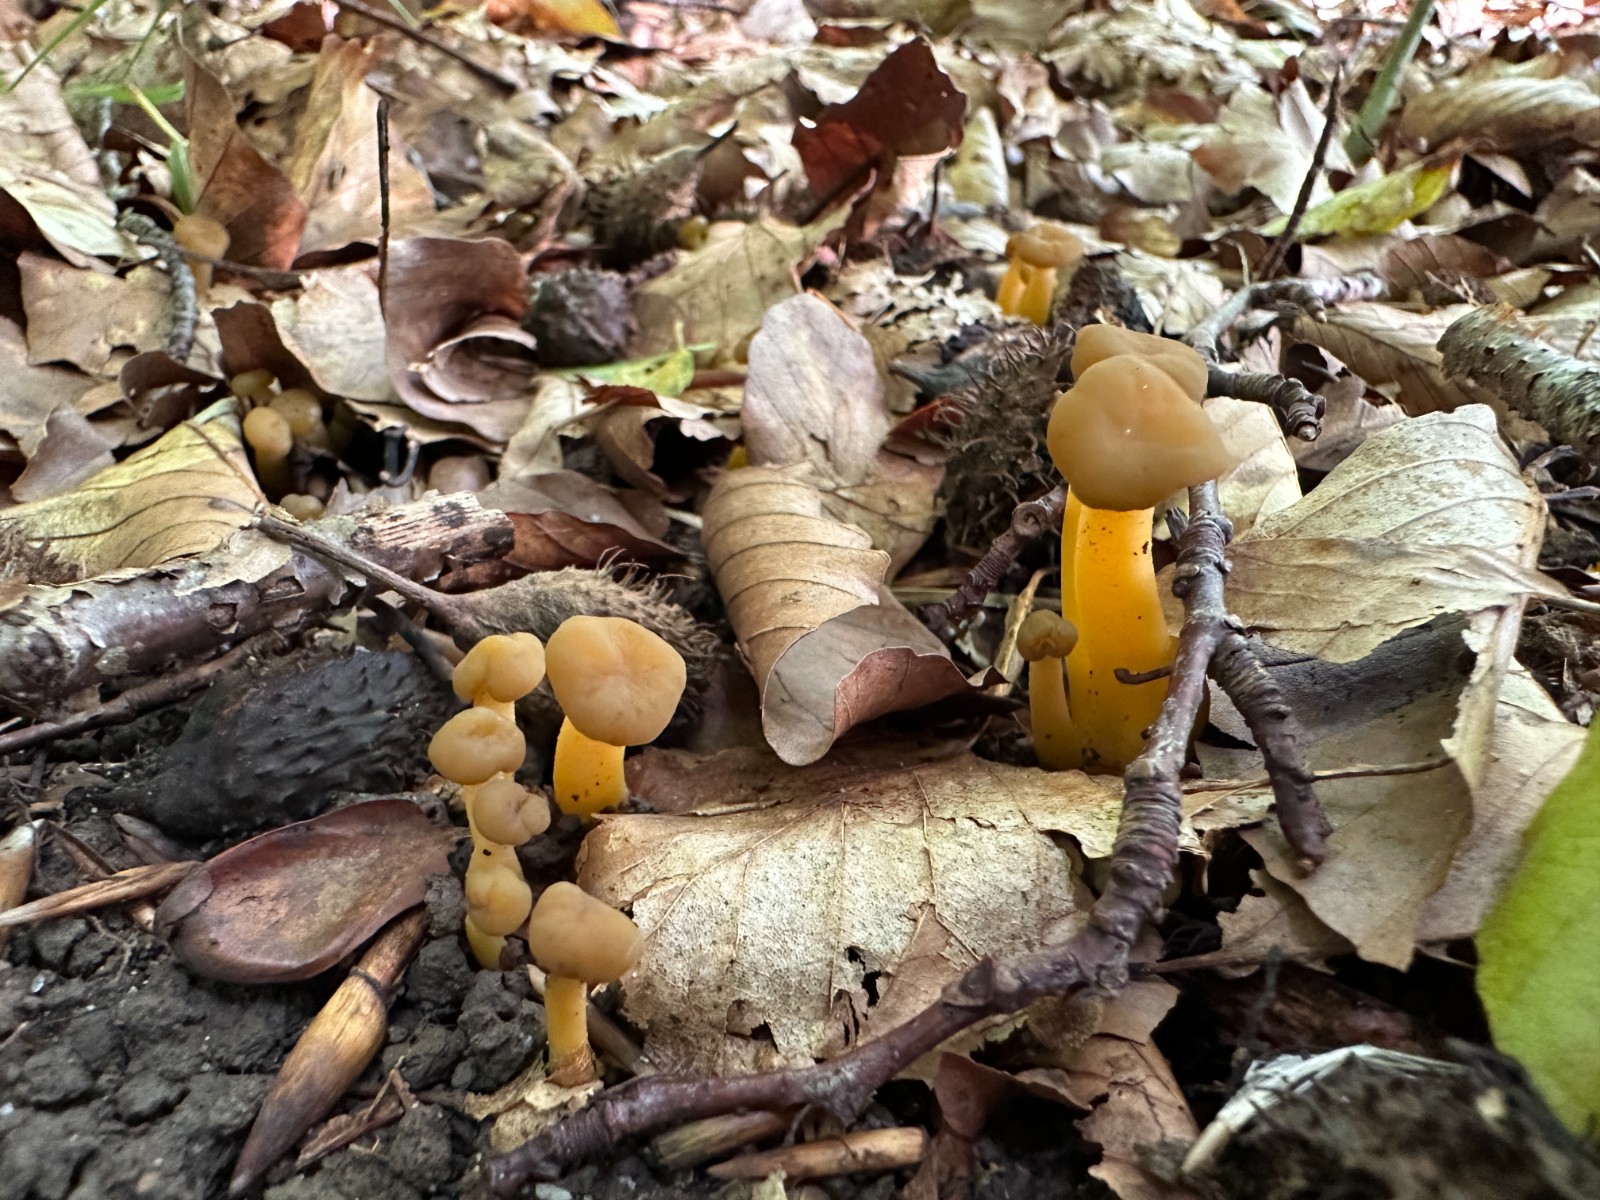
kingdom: Fungi
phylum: Ascomycota
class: Leotiomycetes
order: Leotiales
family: Leotiaceae
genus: Leotia
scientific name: Leotia lubrica
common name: ravsvamp
